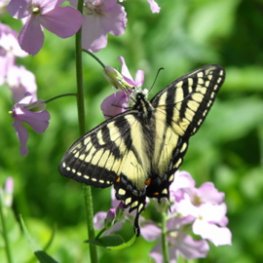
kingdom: Animalia
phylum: Arthropoda
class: Insecta
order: Lepidoptera
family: Papilionidae
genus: Pterourus
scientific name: Pterourus canadensis
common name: Canadian Tiger Swallowtail
